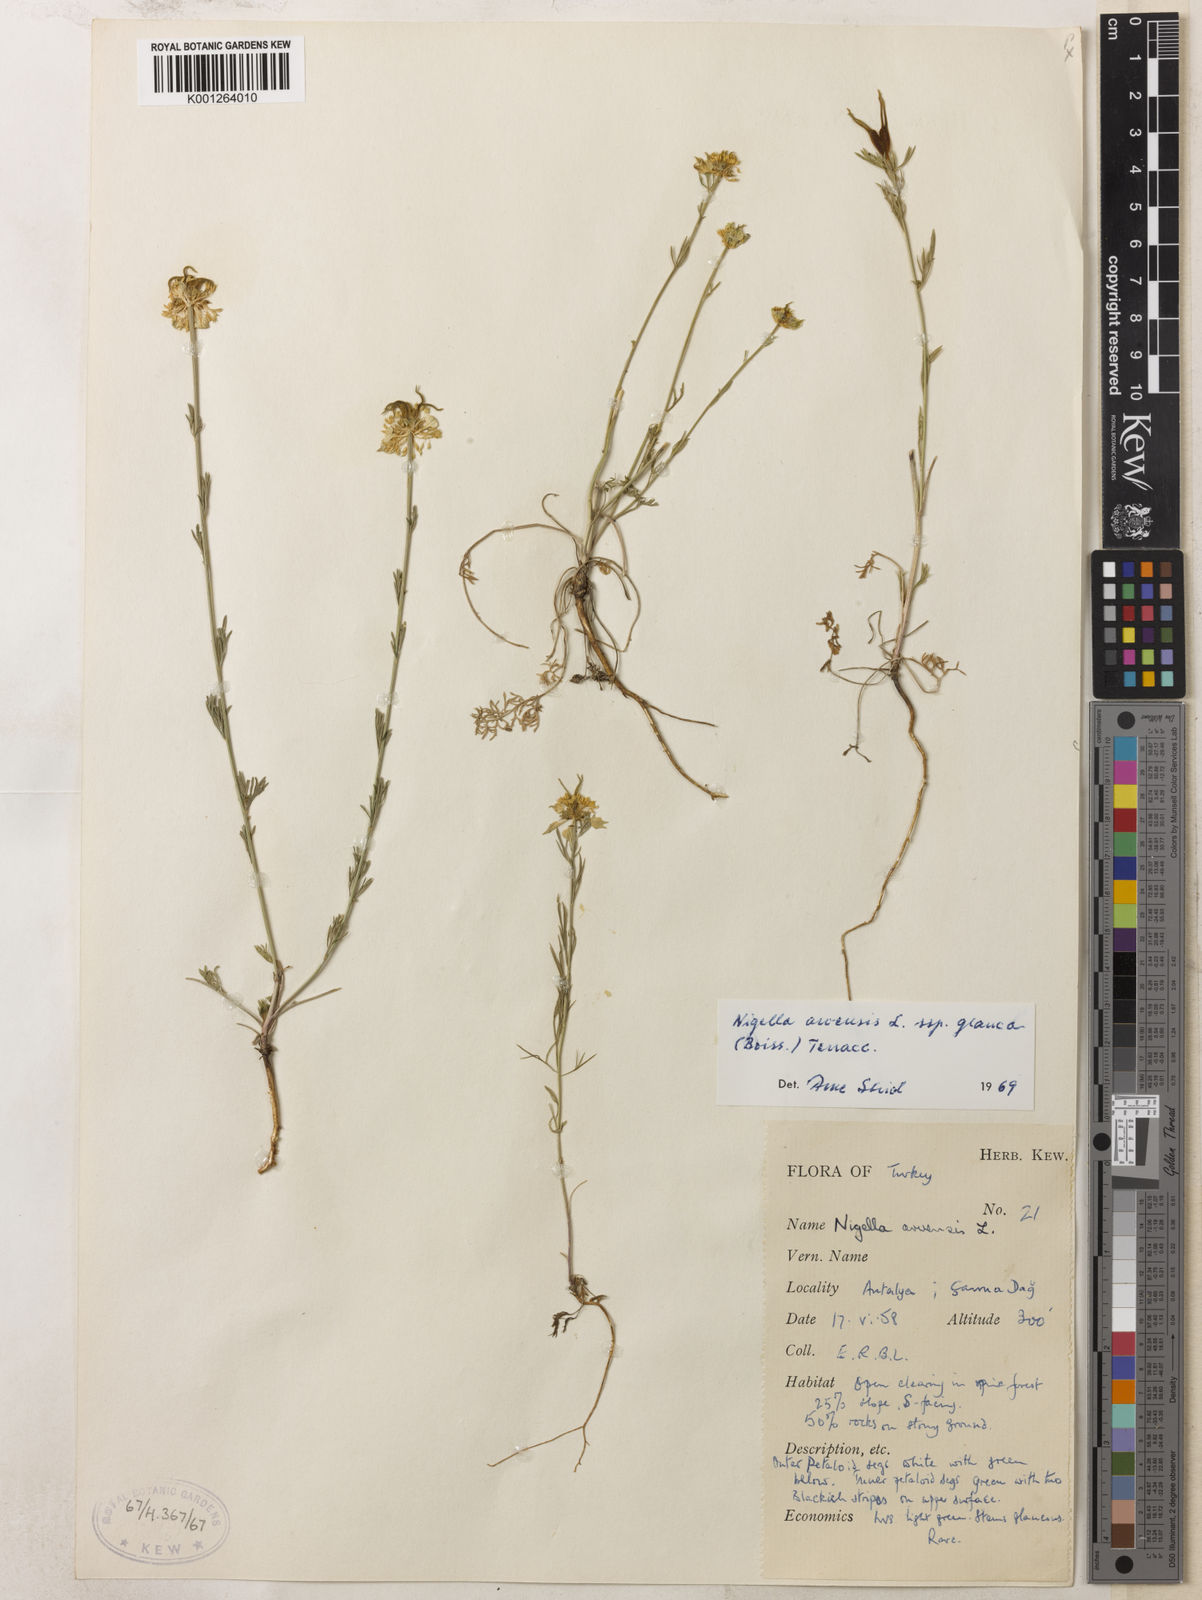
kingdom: Plantae
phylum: Tracheophyta
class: Magnoliopsida
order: Ranunculales
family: Ranunculaceae
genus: Nigella
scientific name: Nigella arvensis
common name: Wild fennel-flower
